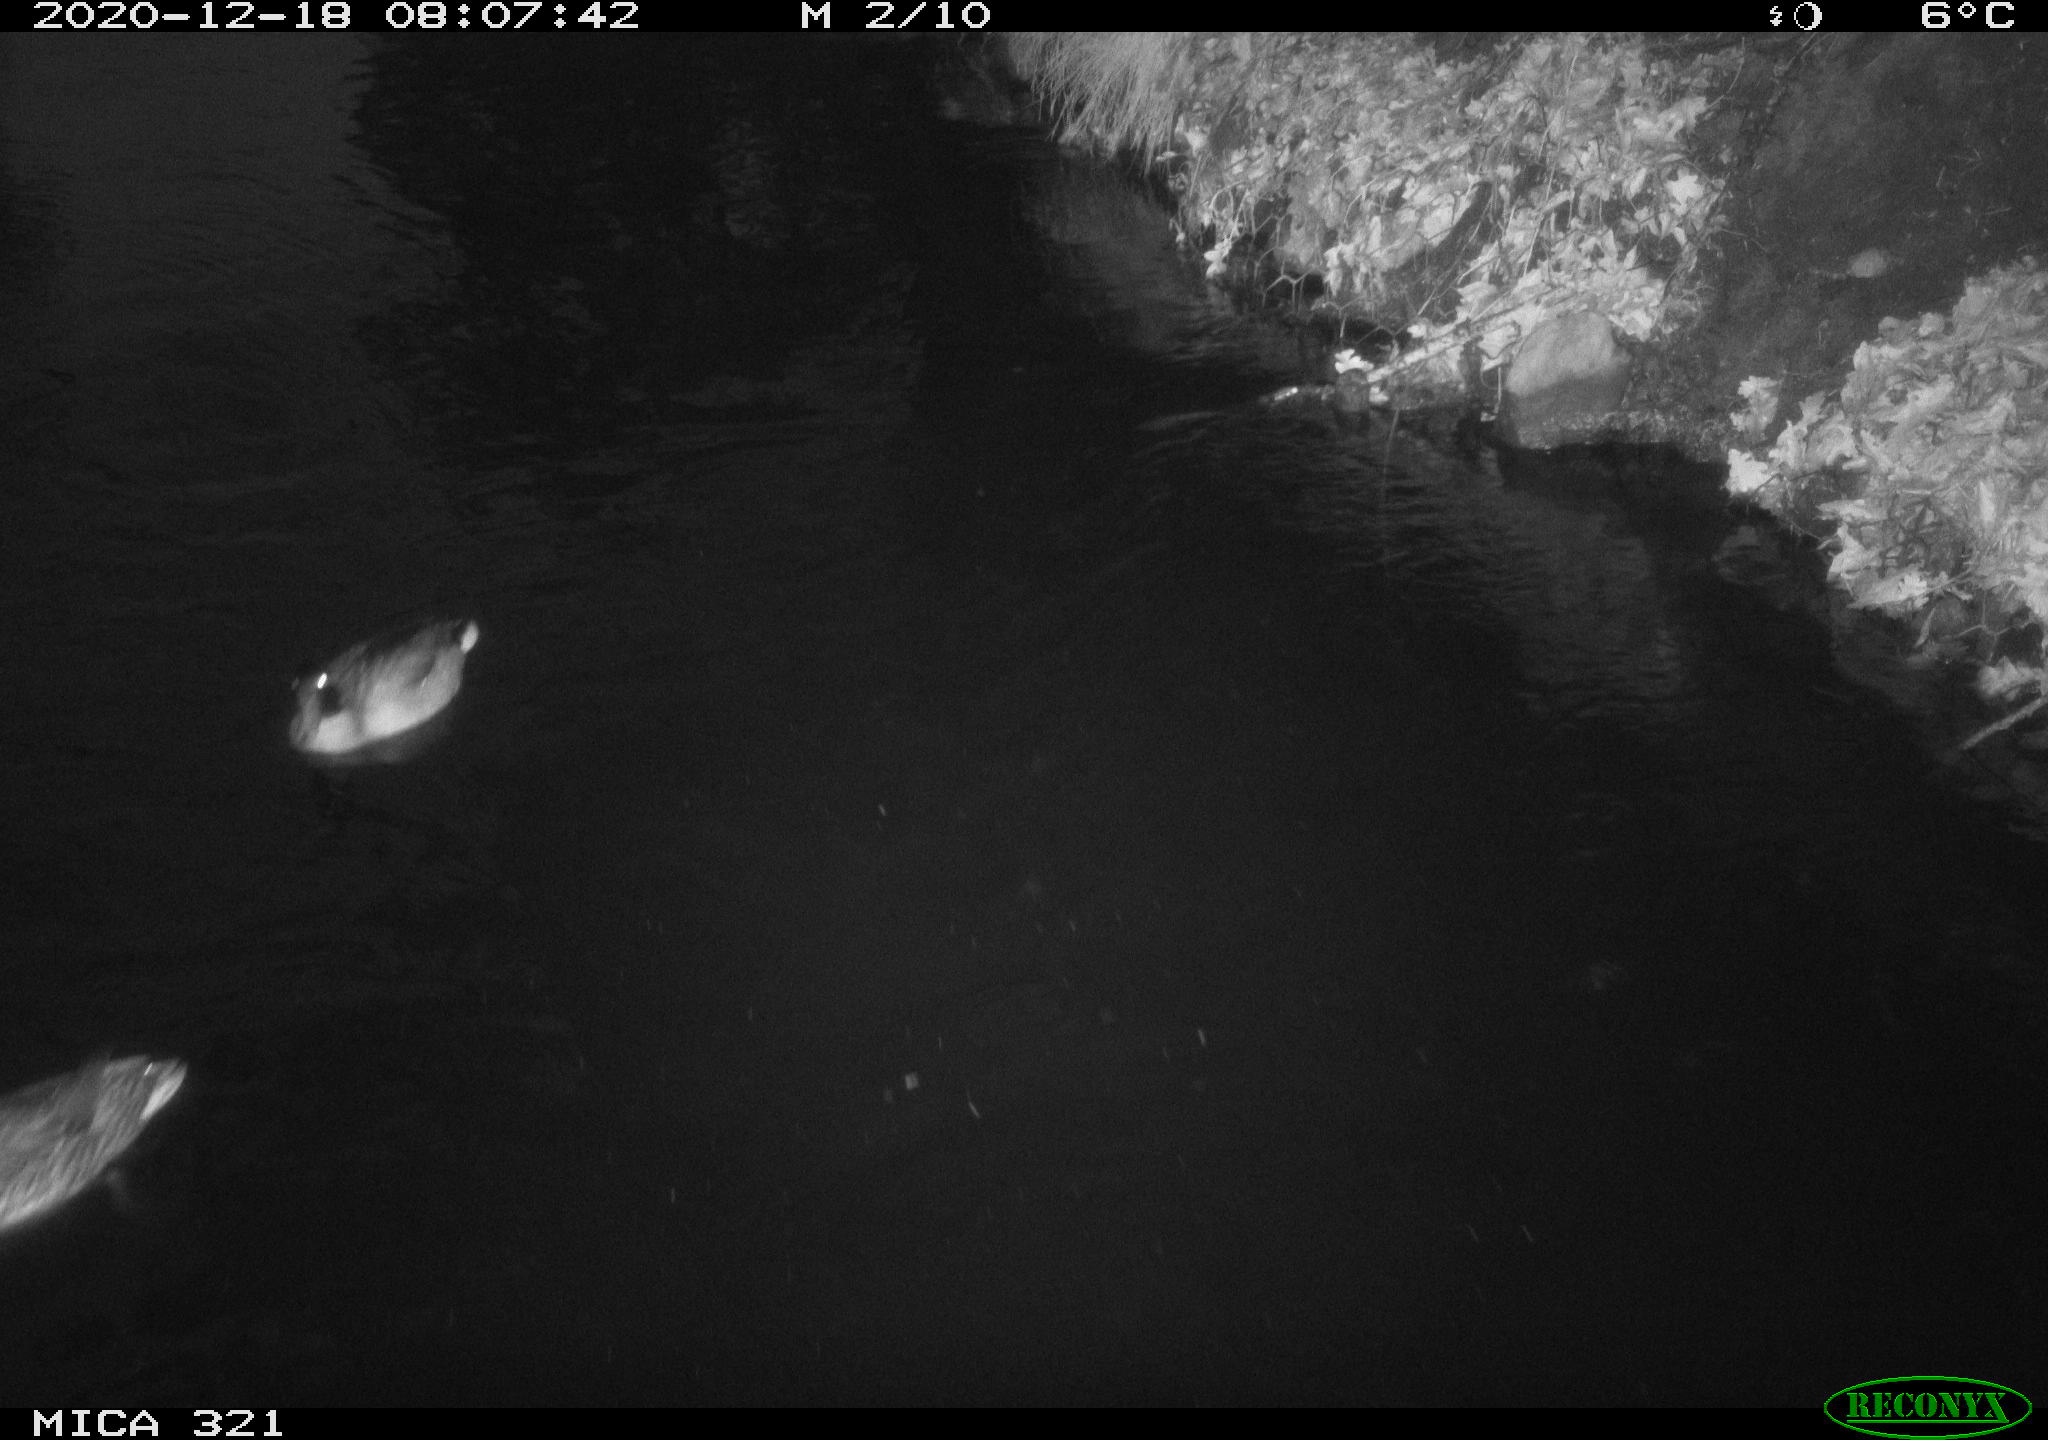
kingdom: Animalia
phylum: Chordata
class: Aves
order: Anseriformes
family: Anatidae
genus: Anas
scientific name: Anas platyrhynchos
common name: Mallard
